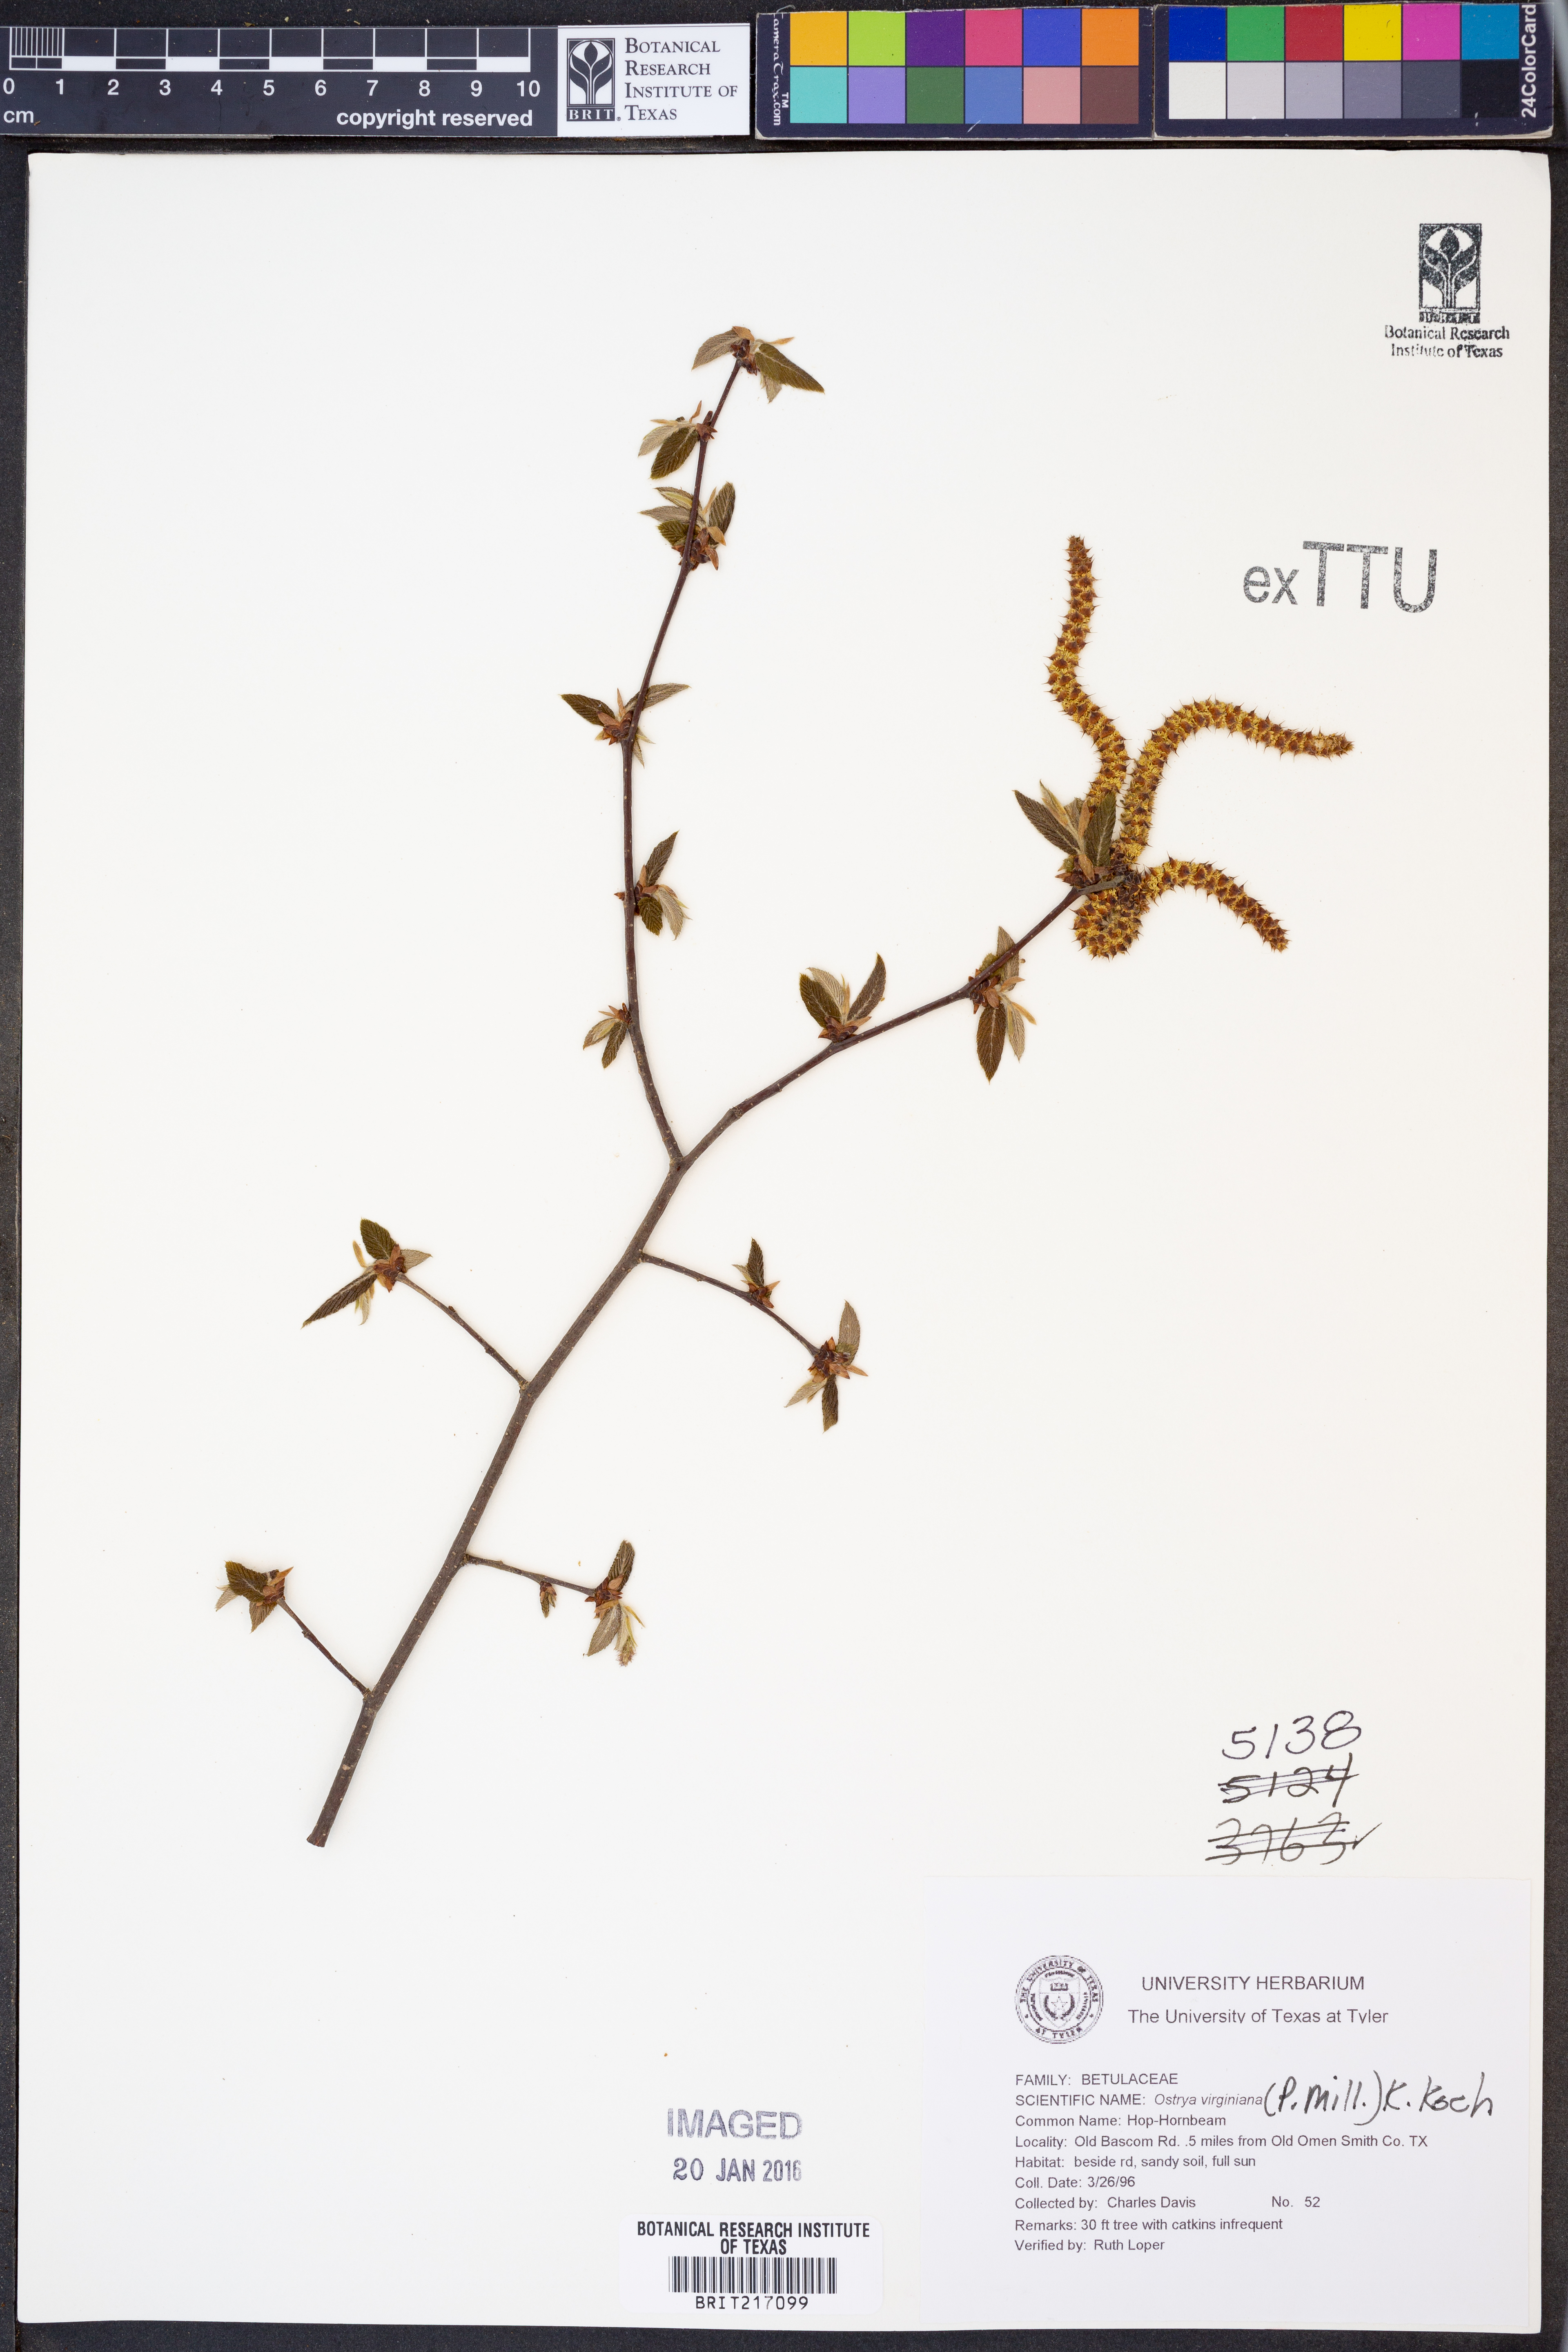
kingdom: Plantae
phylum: Tracheophyta
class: Magnoliopsida
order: Fagales
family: Betulaceae
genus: Ostrya
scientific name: Ostrya virginiana
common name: Ironwood
